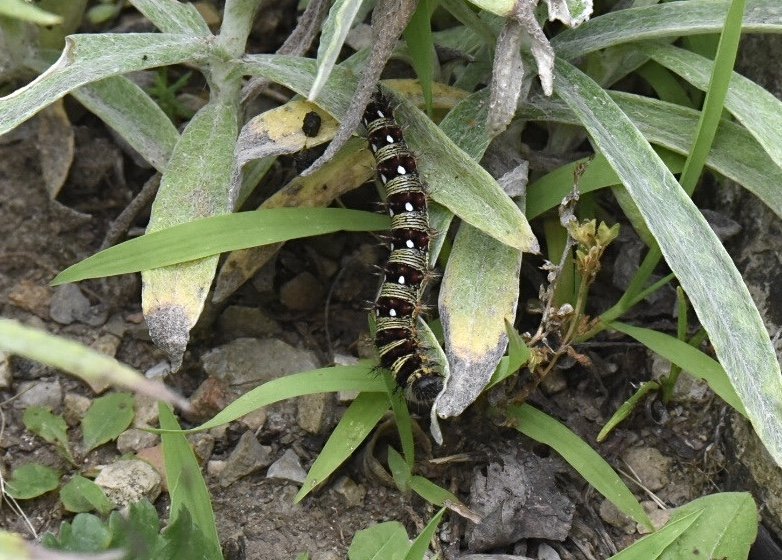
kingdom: Animalia
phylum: Arthropoda
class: Insecta
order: Lepidoptera
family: Nymphalidae
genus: Vanessa
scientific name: Vanessa virginiensis
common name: American Lady
